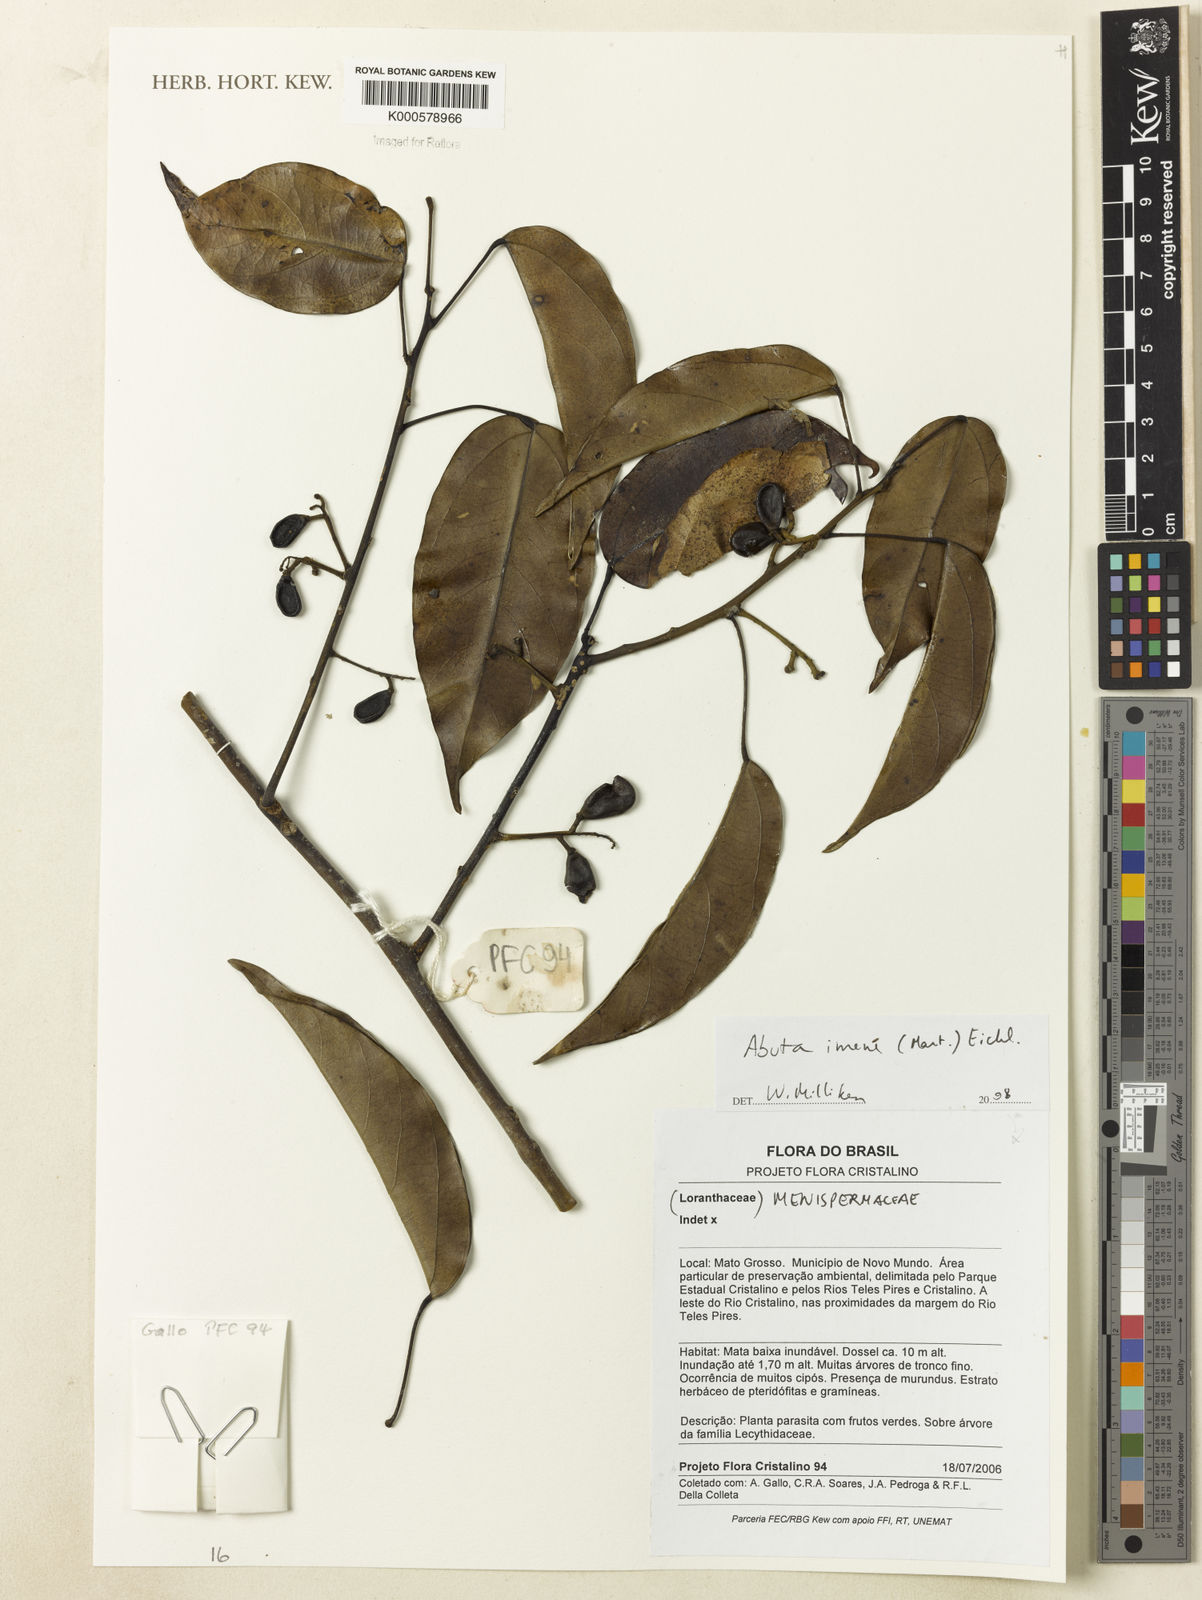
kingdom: Plantae
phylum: Tracheophyta
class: Magnoliopsida
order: Ranunculales
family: Menispermaceae
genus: Abuta
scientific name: Abuta imene
